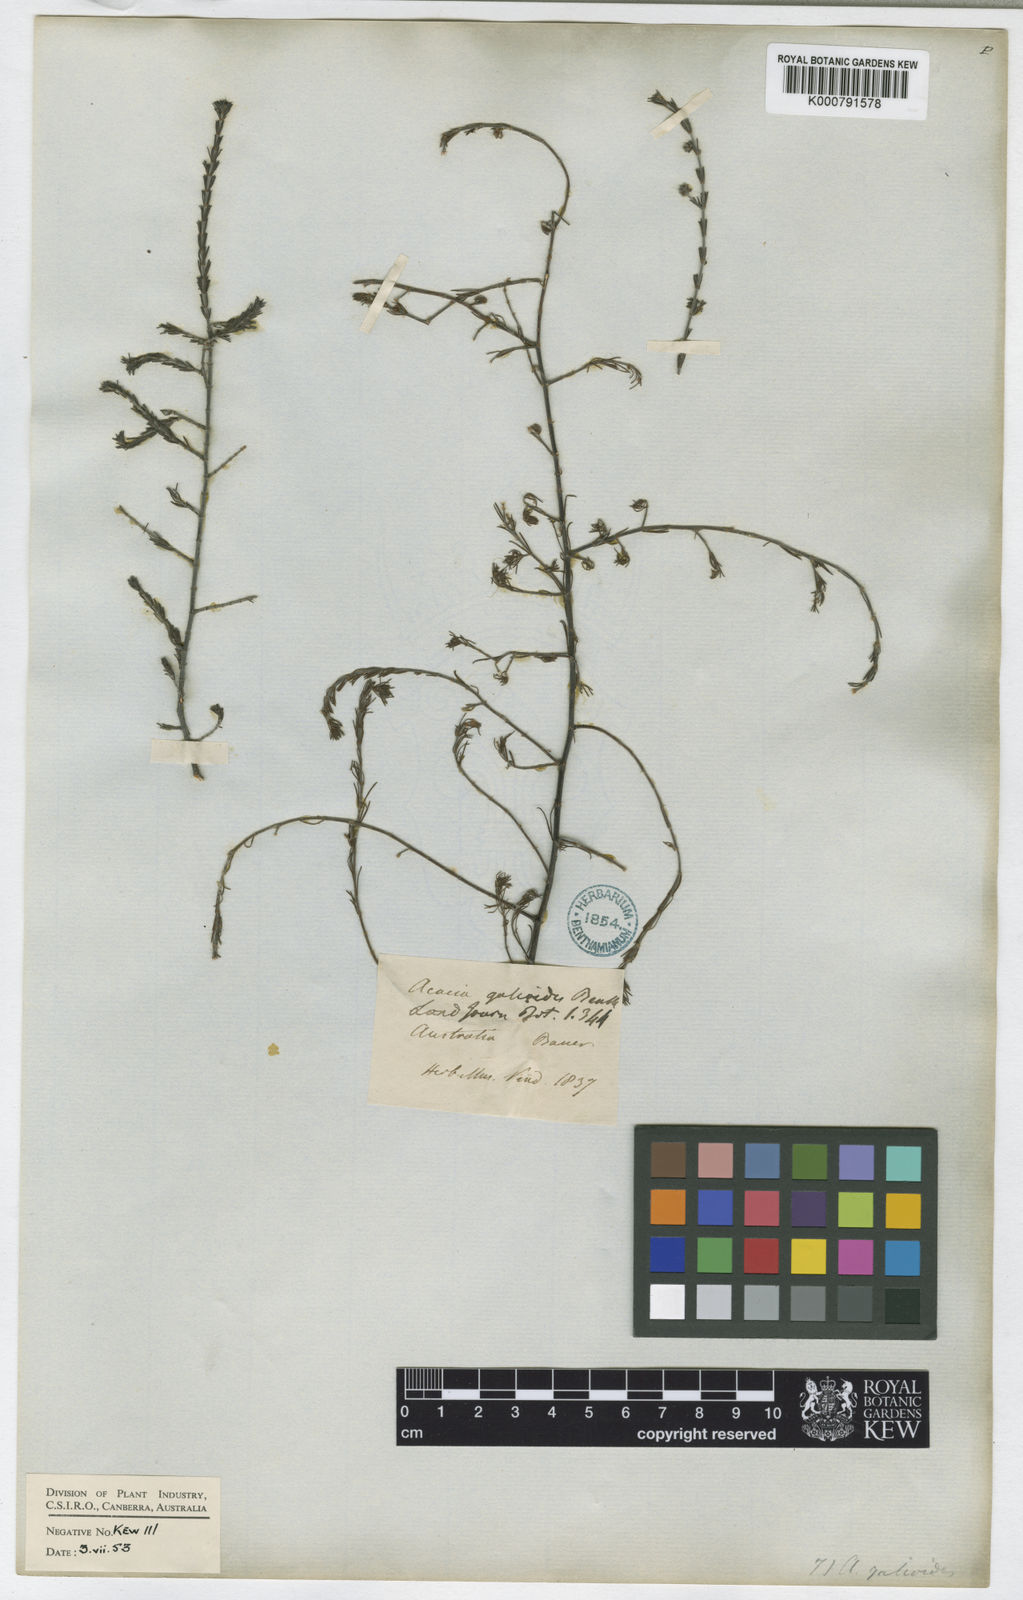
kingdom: Plantae
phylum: Tracheophyta
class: Magnoliopsida
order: Fabales
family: Fabaceae
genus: Acacia
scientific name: Acacia galioides
